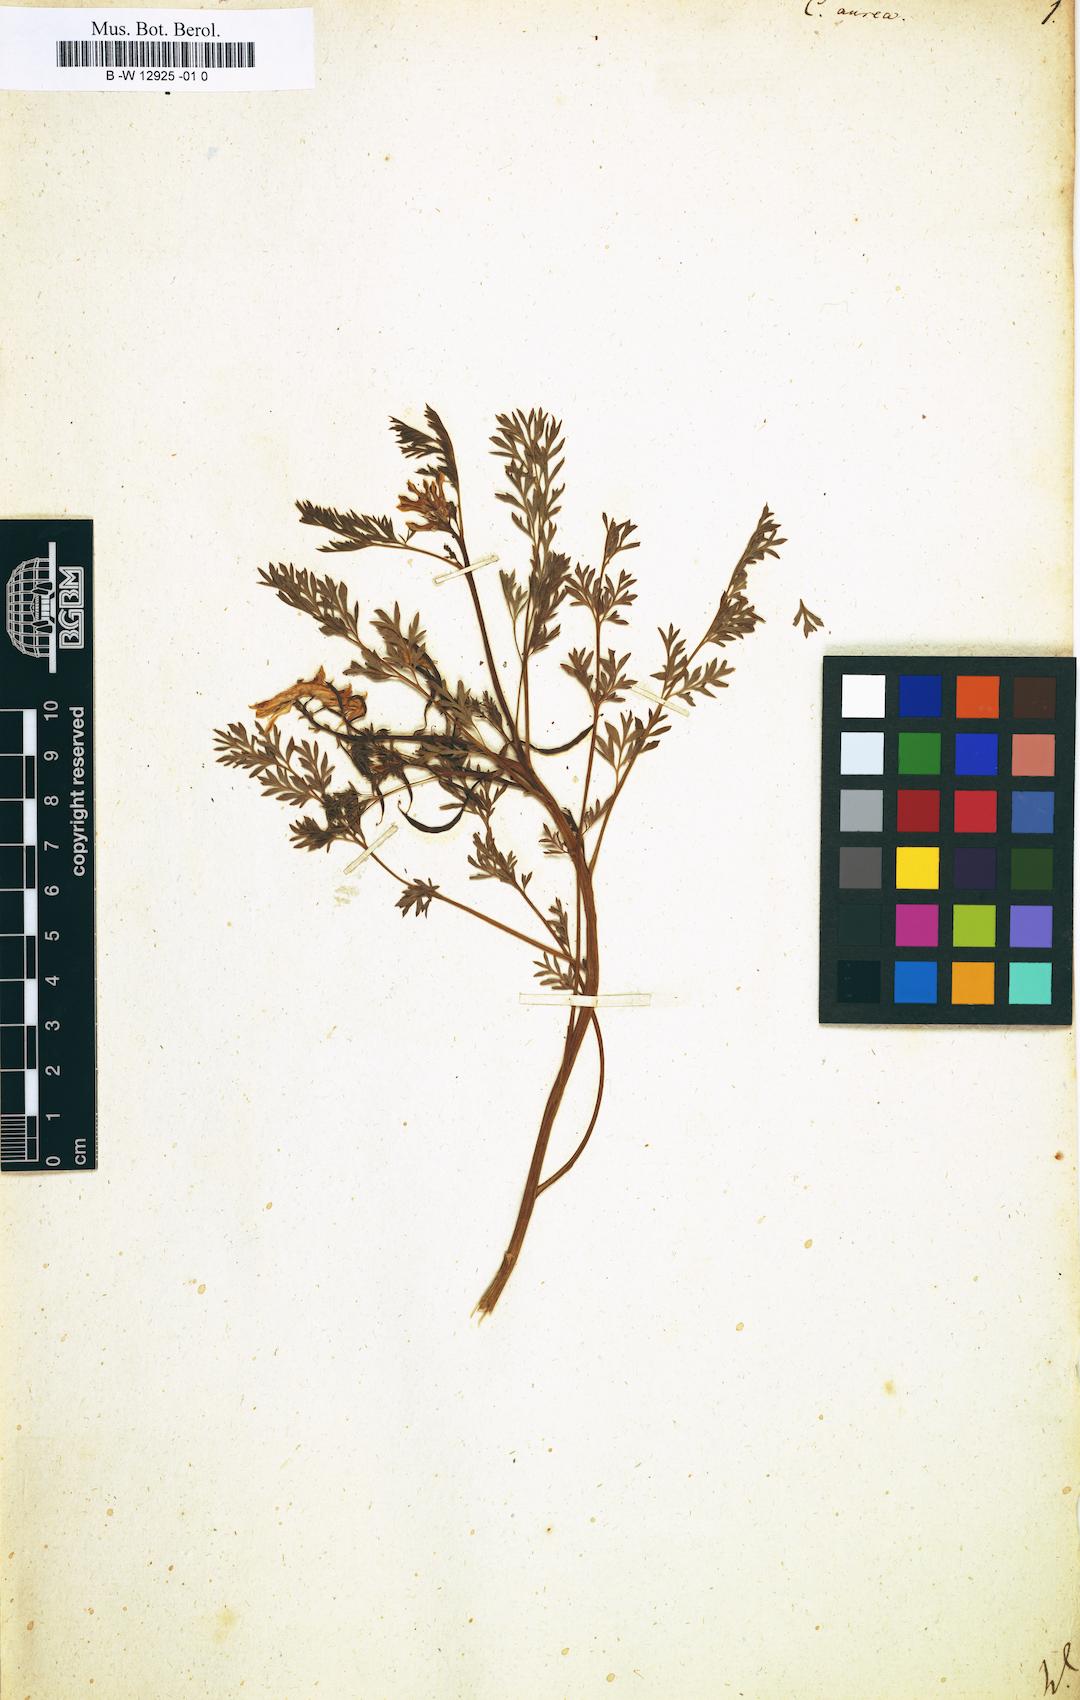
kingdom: Plantae
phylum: Tracheophyta
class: Magnoliopsida
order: Ranunculales
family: Papaveraceae
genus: Corydalis
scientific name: Corydalis aurea
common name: Golden corydalis
